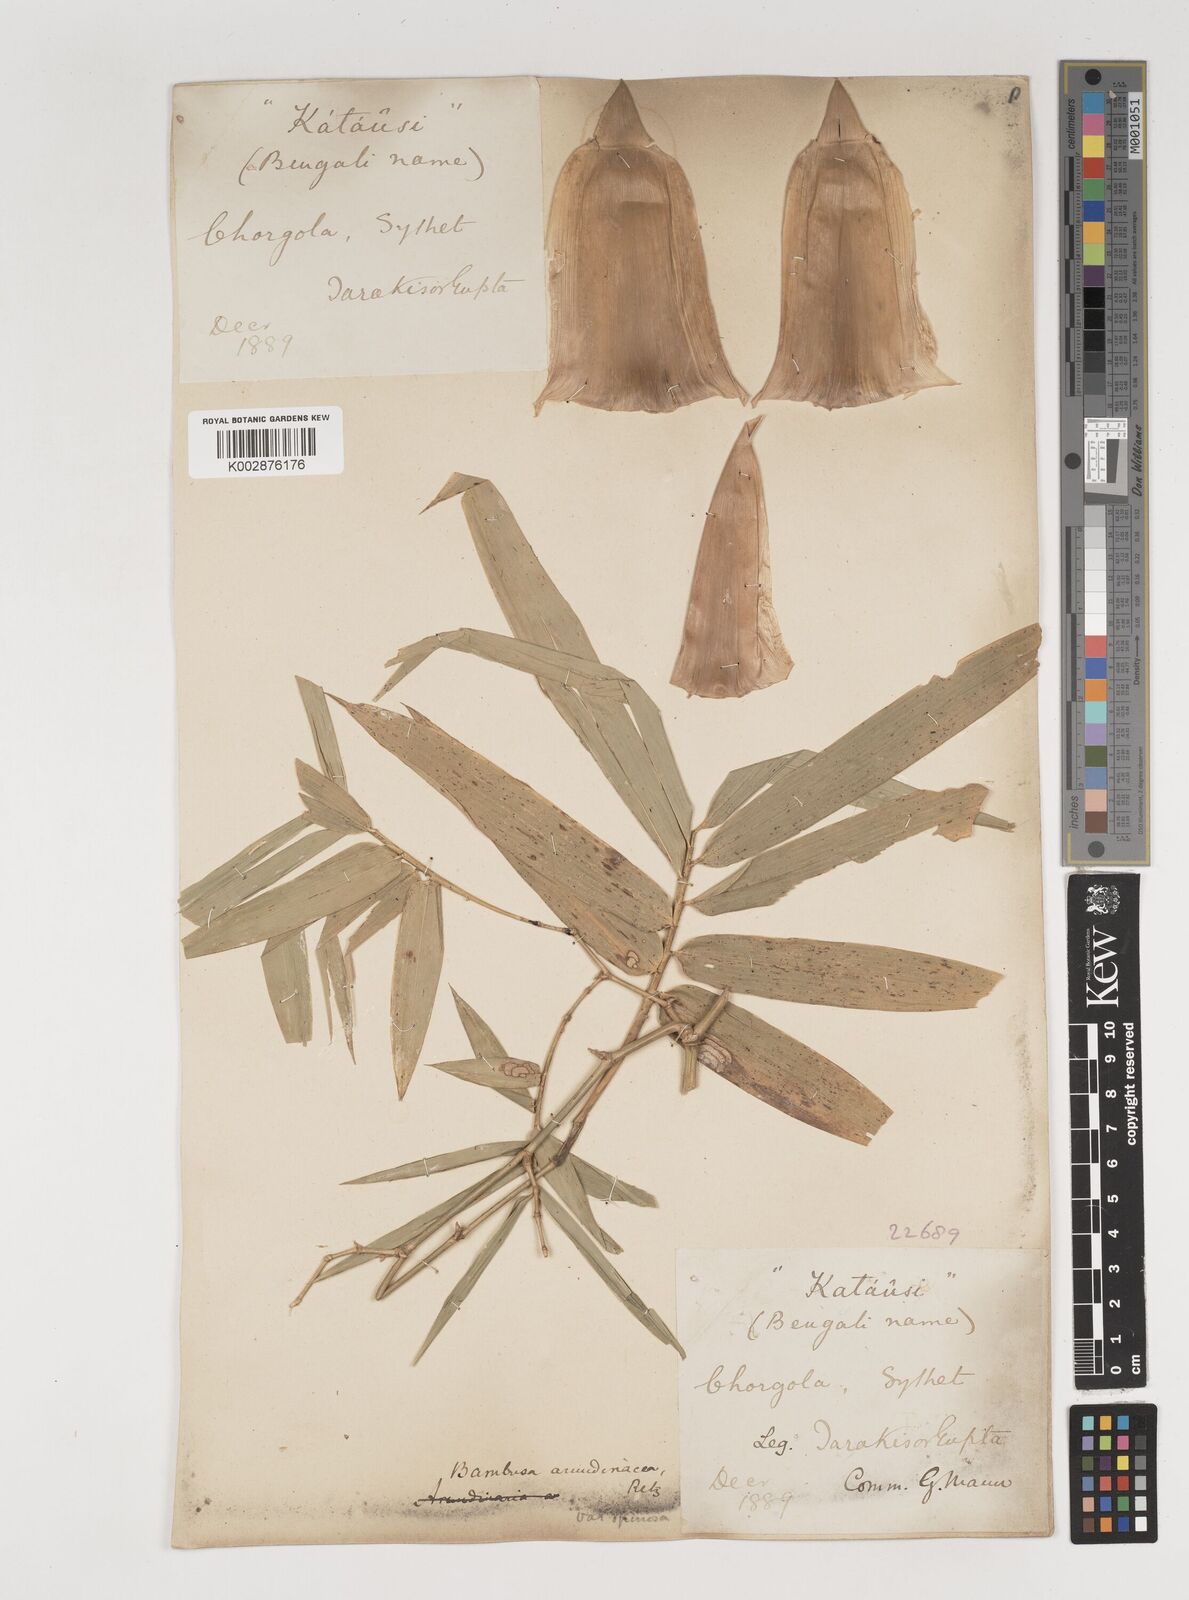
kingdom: Plantae
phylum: Tracheophyta
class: Liliopsida
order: Poales
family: Poaceae
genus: Bambusa
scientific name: Bambusa bambos
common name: Indian thorny bamboo
